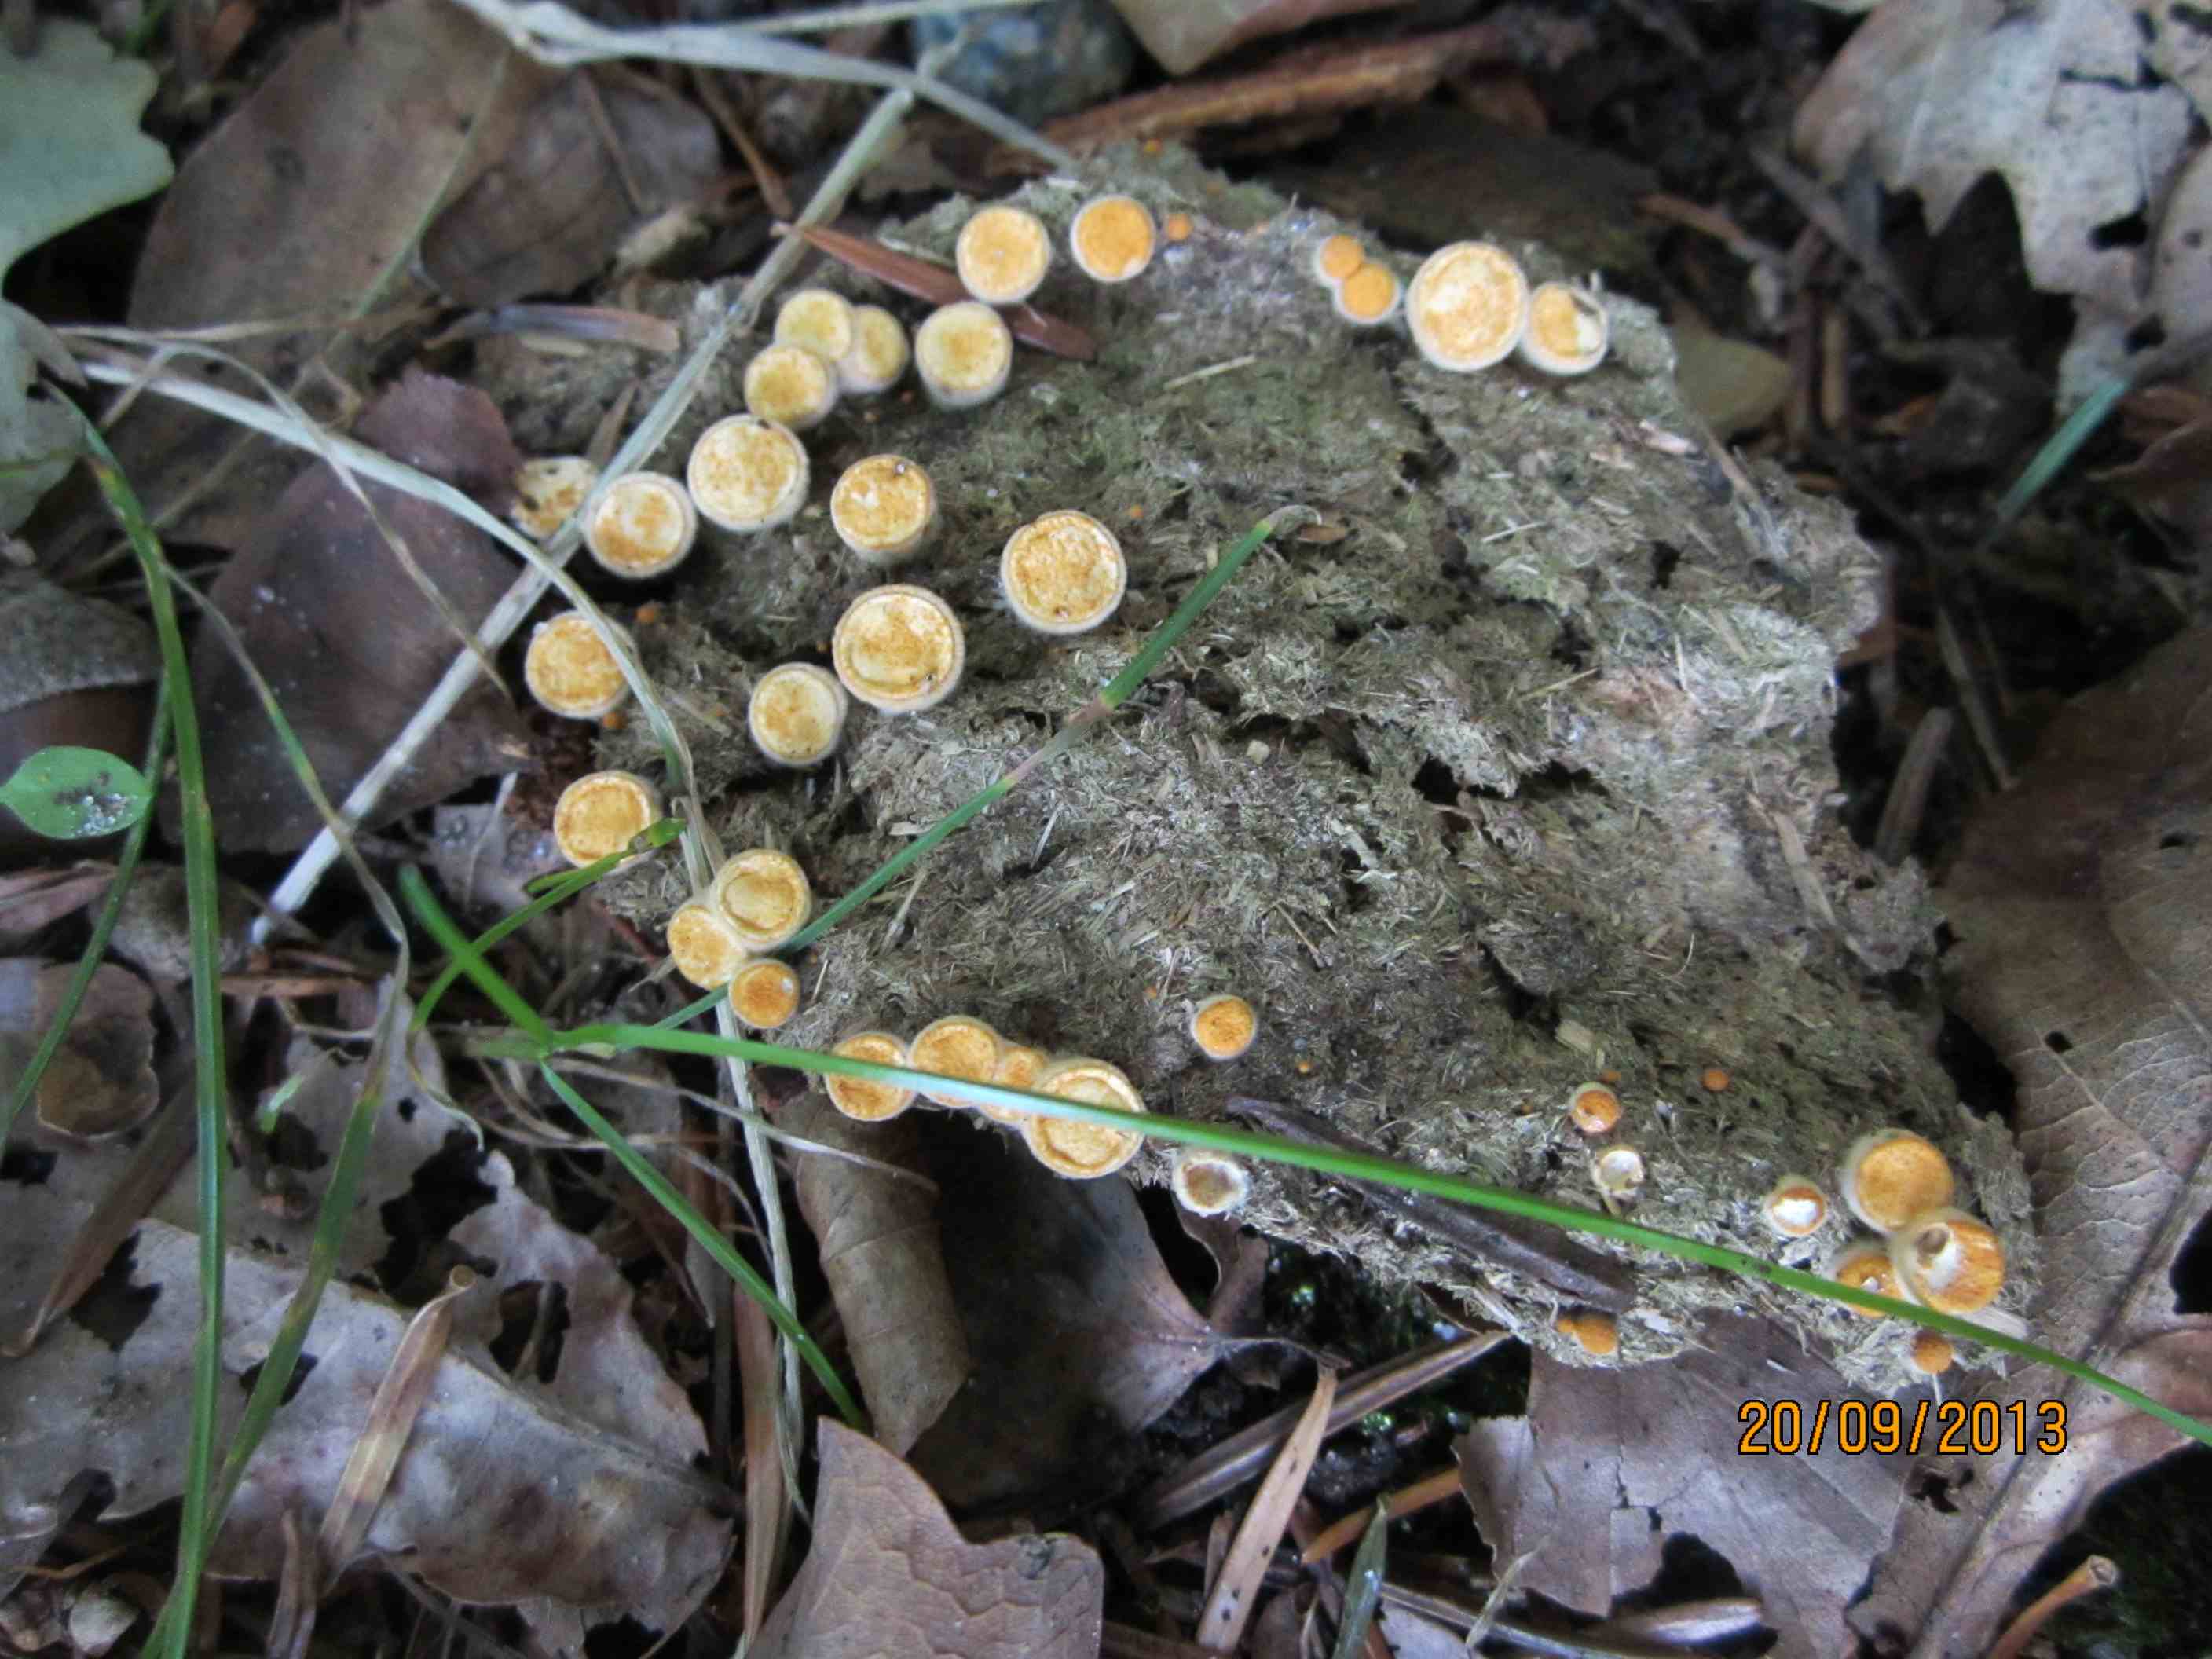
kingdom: Fungi
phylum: Basidiomycota
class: Agaricomycetes
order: Agaricales
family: Nidulariaceae
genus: Crucibulum
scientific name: Crucibulum crucibuliforme
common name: krukkesvamp
